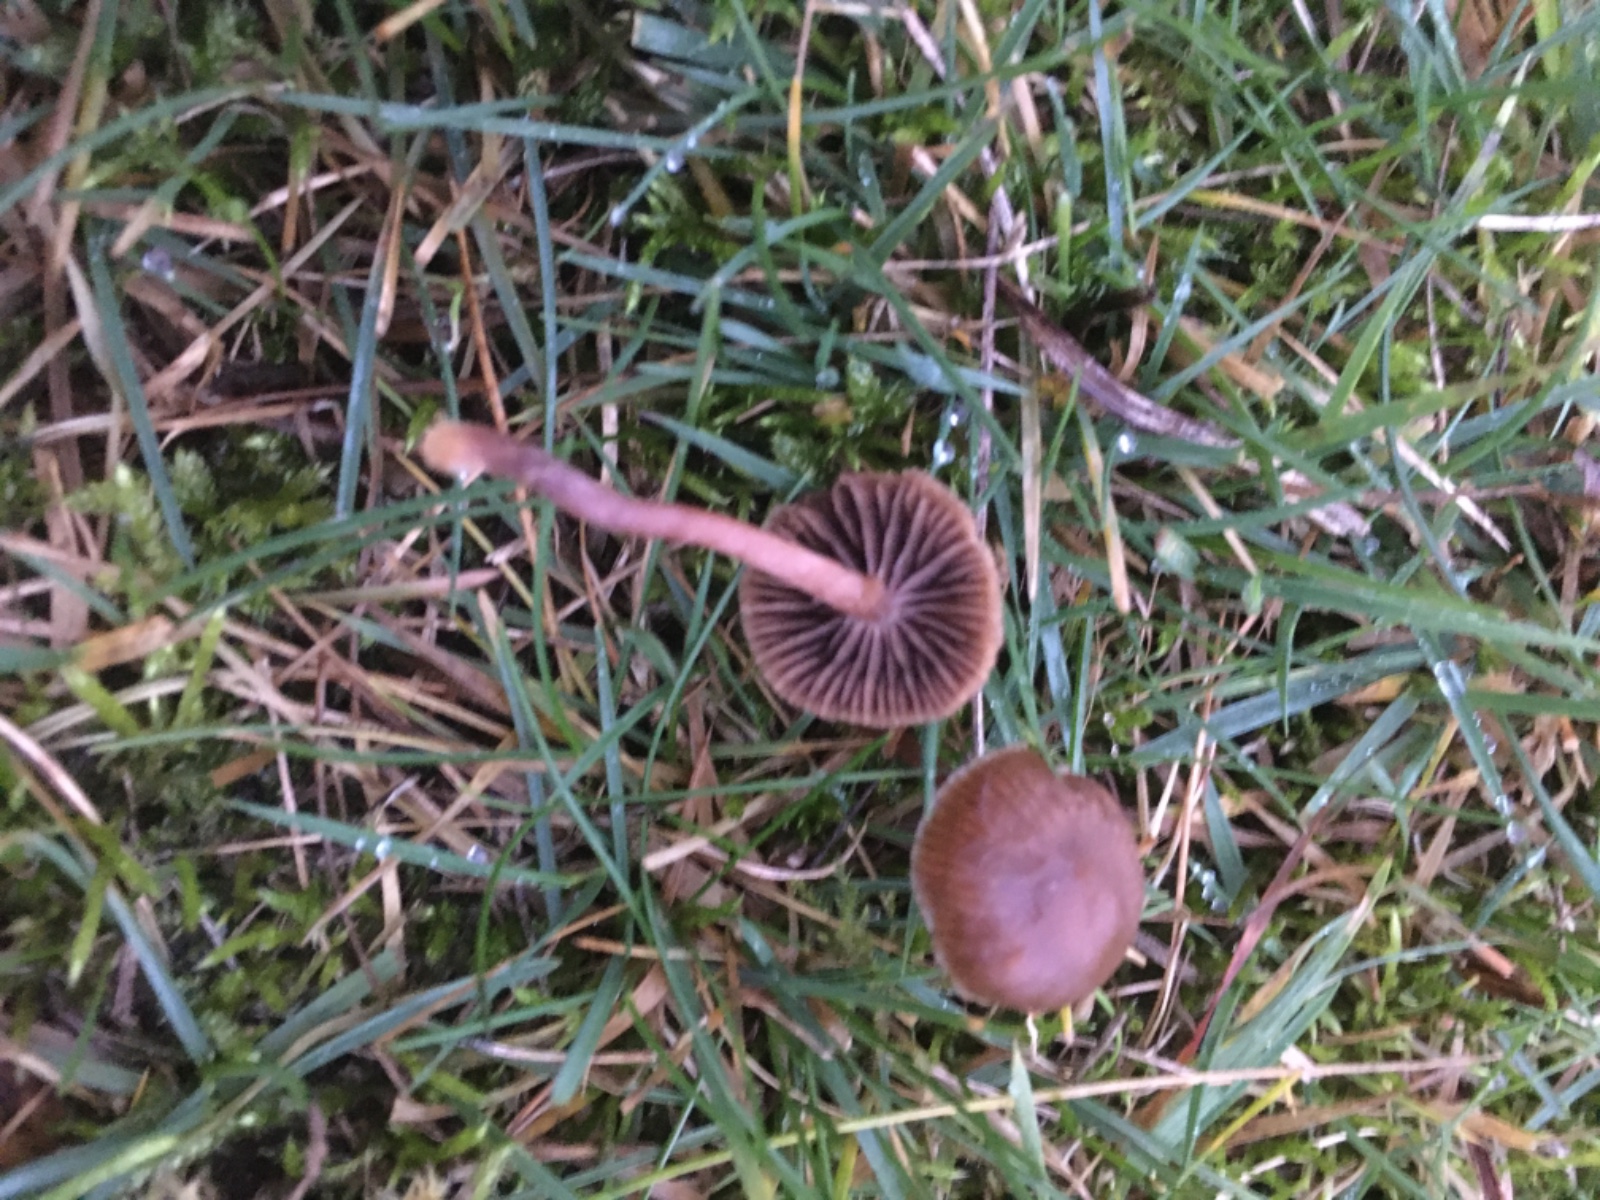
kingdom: Fungi
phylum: Basidiomycota
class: Agaricomycetes
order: Agaricales
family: Strophariaceae
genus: Deconica
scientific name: Deconica
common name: stråhat
